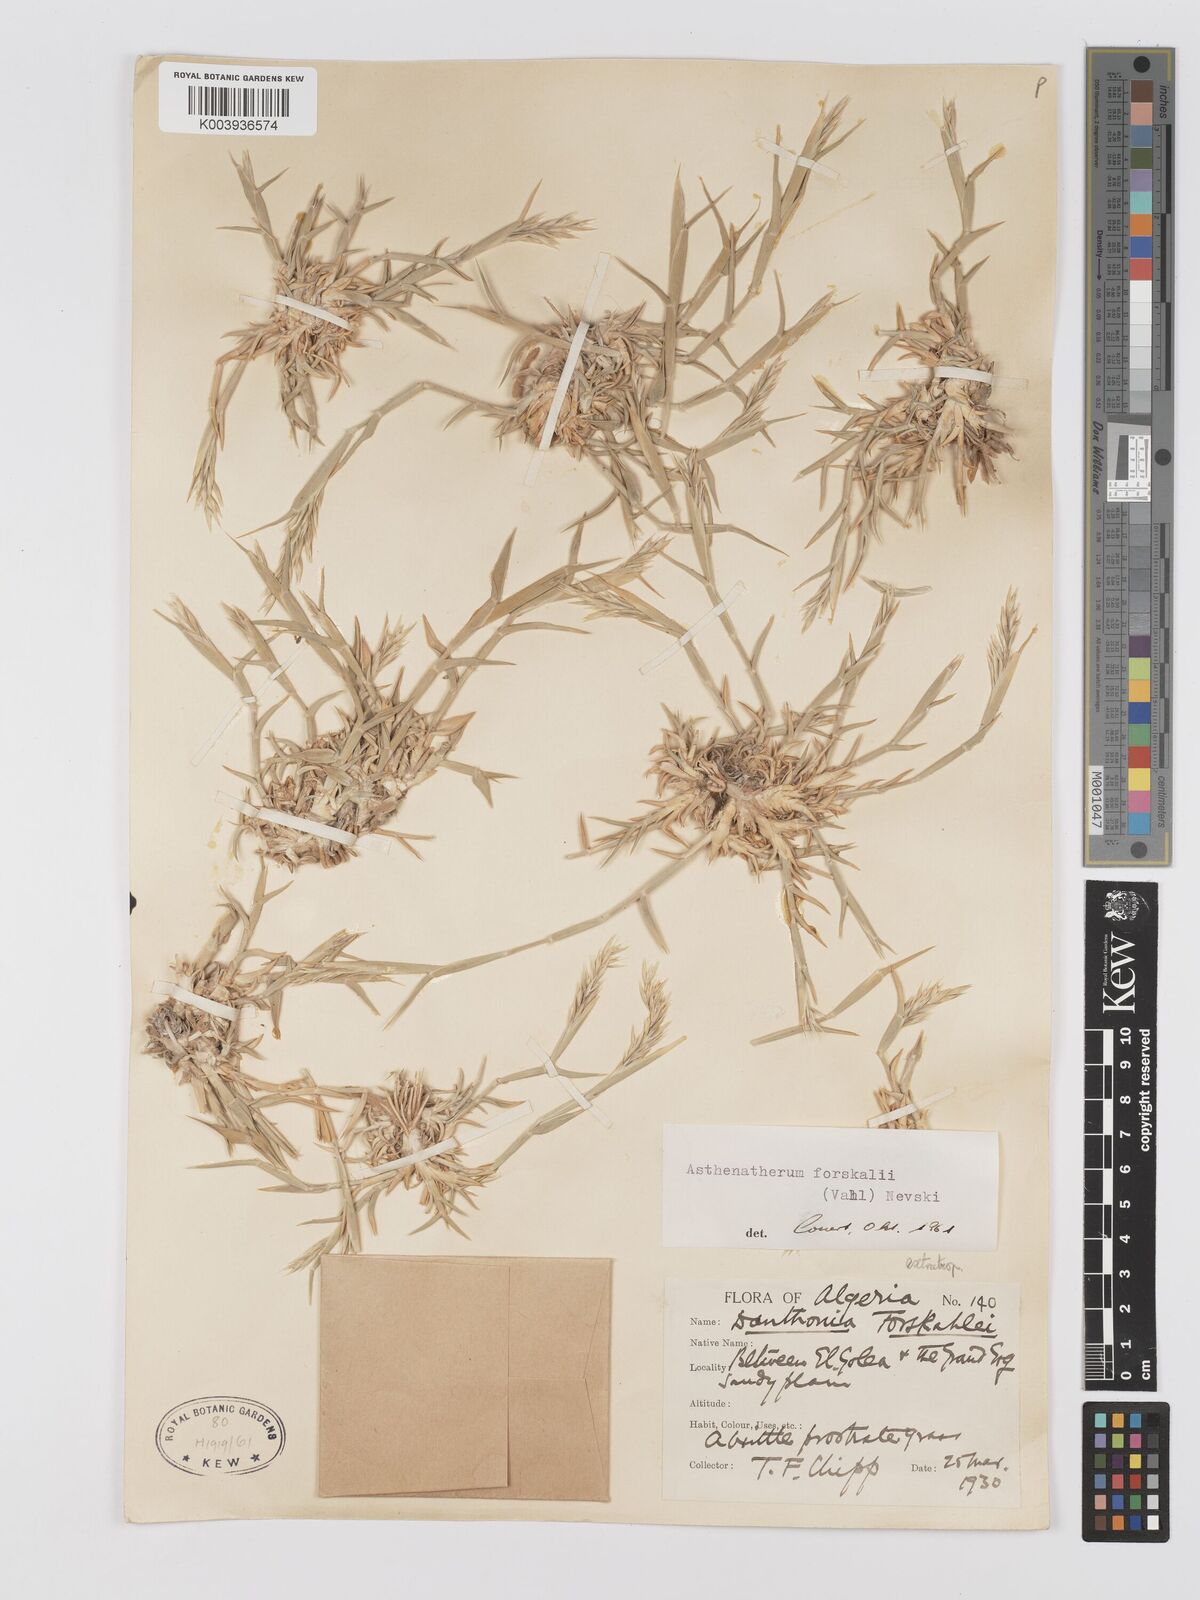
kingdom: Plantae
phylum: Tracheophyta
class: Liliopsida
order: Poales
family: Poaceae
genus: Centropodia
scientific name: Centropodia forskaolii
